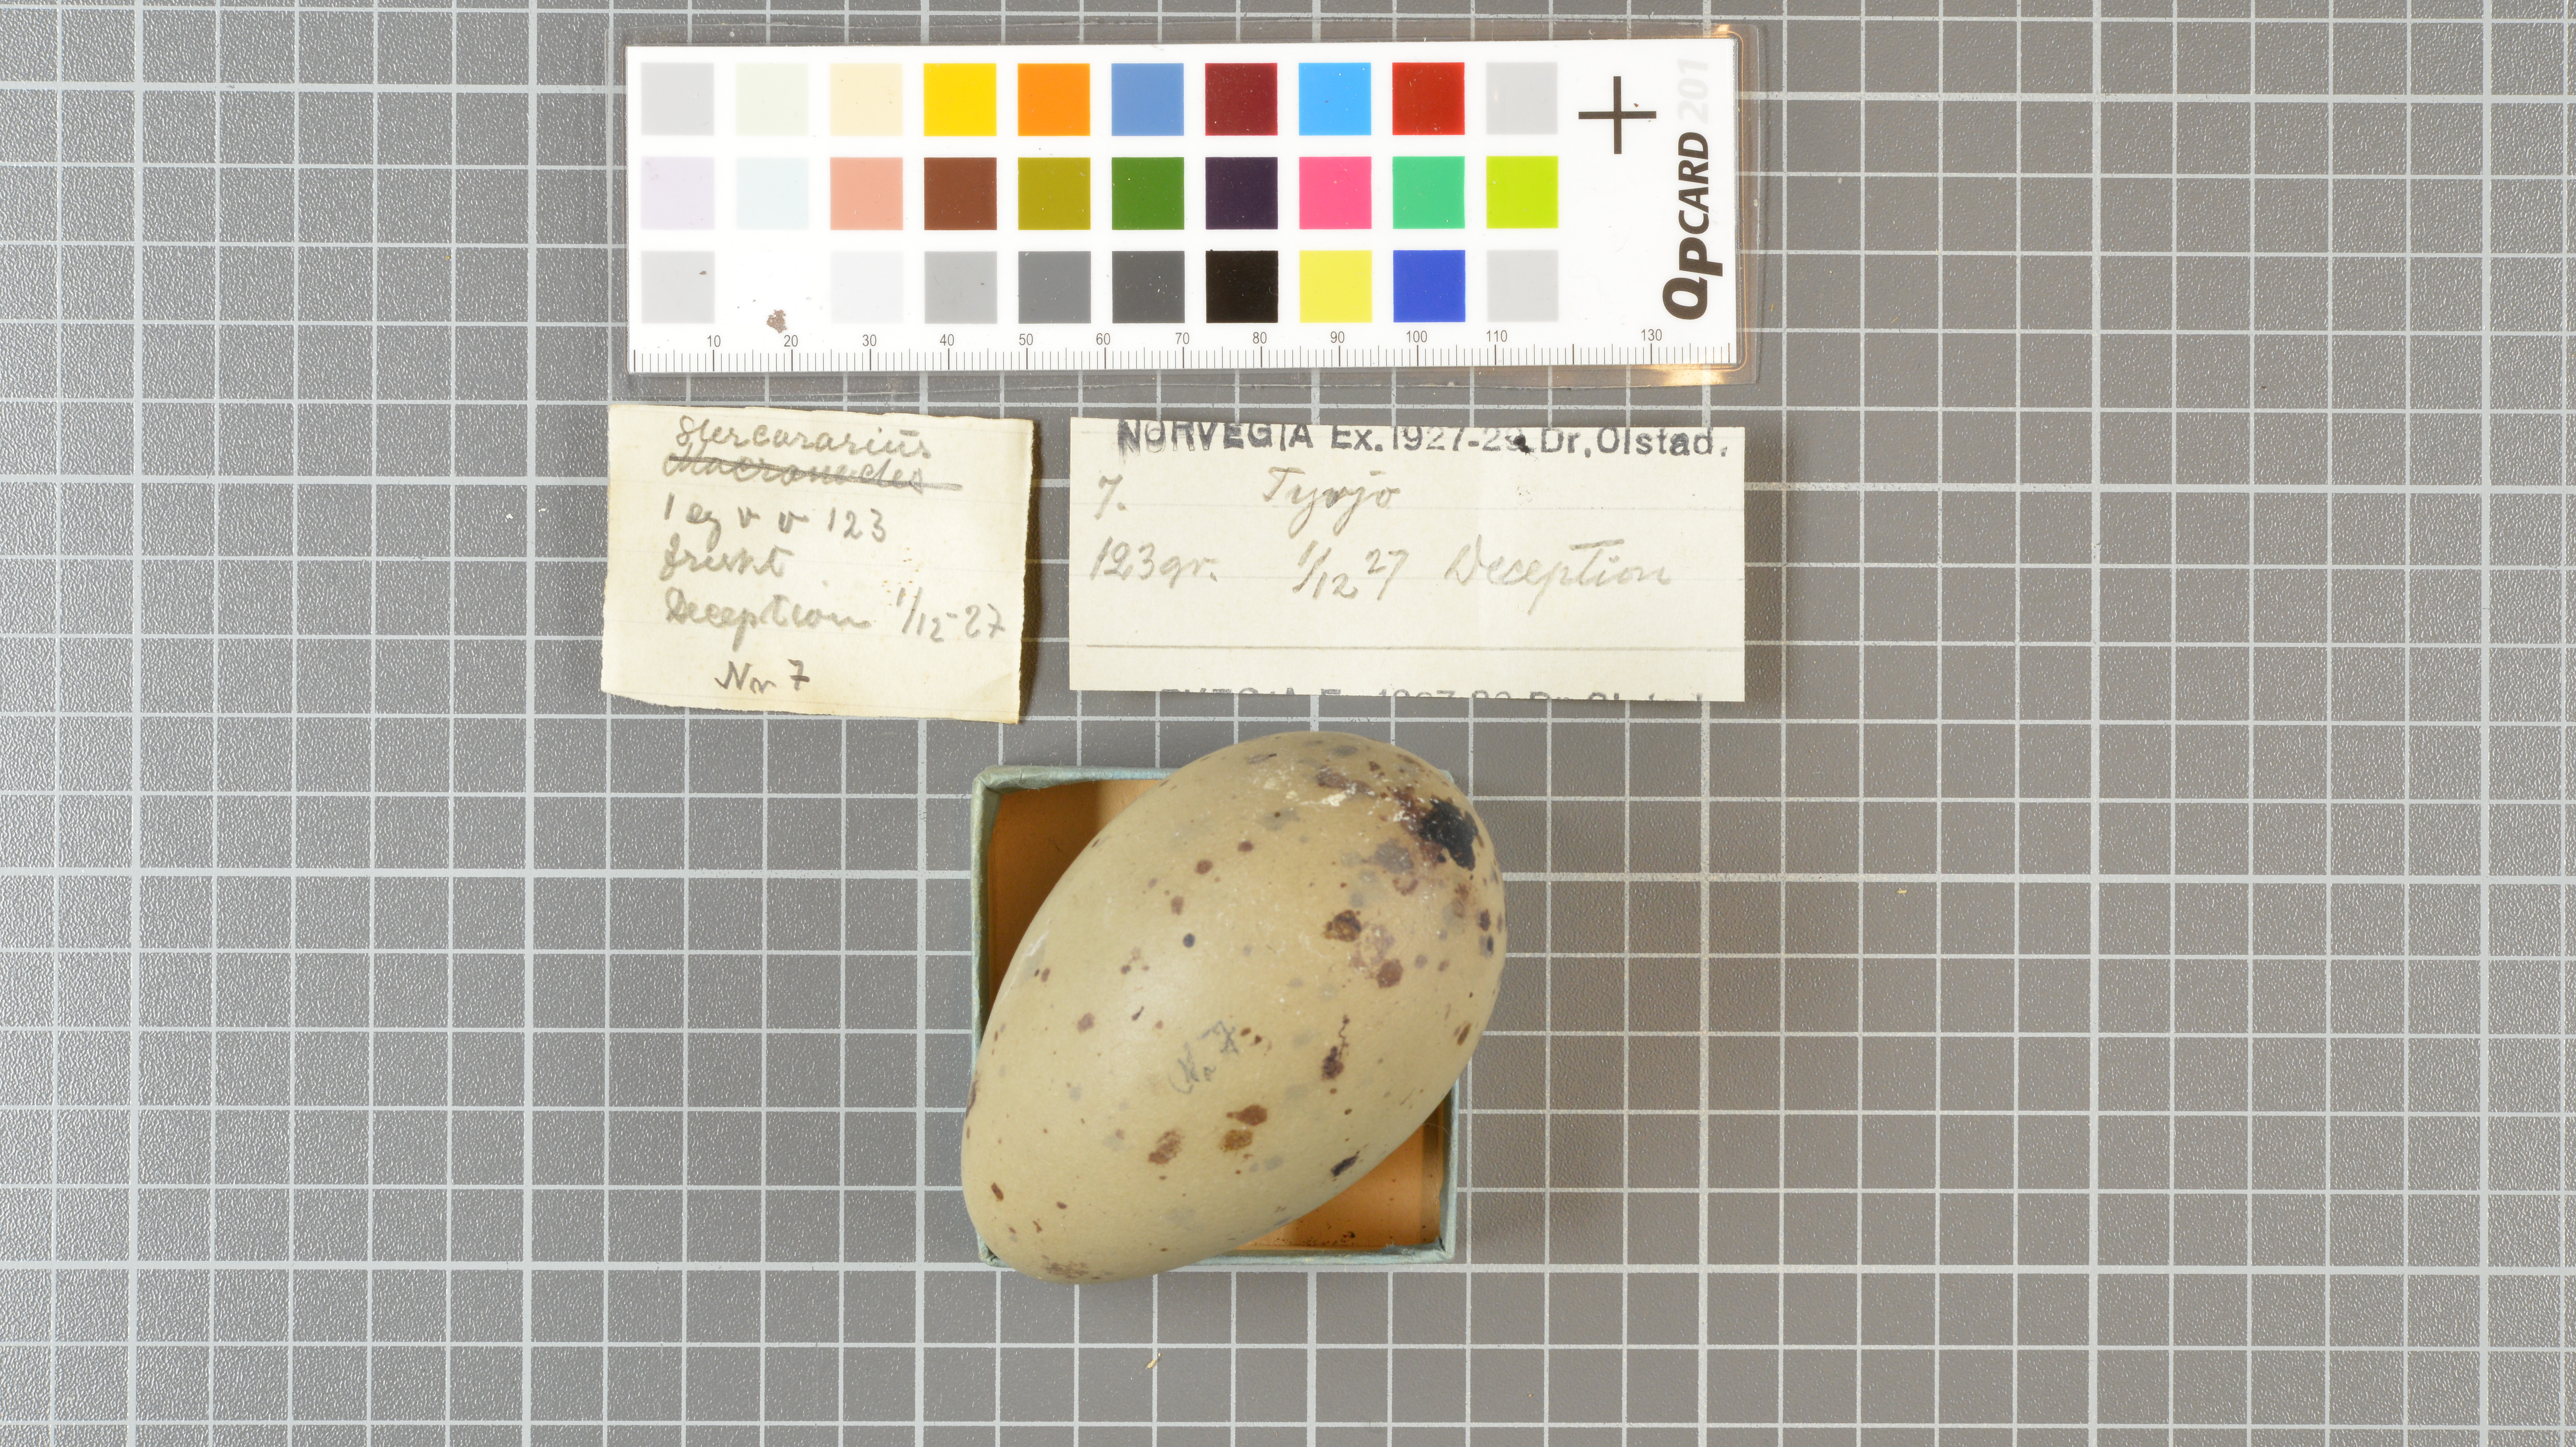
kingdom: Animalia
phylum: Chordata
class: Aves
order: Charadriiformes
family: Stercorariidae
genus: Stercorarius
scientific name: Stercorarius antarcticus
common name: Brown skua
